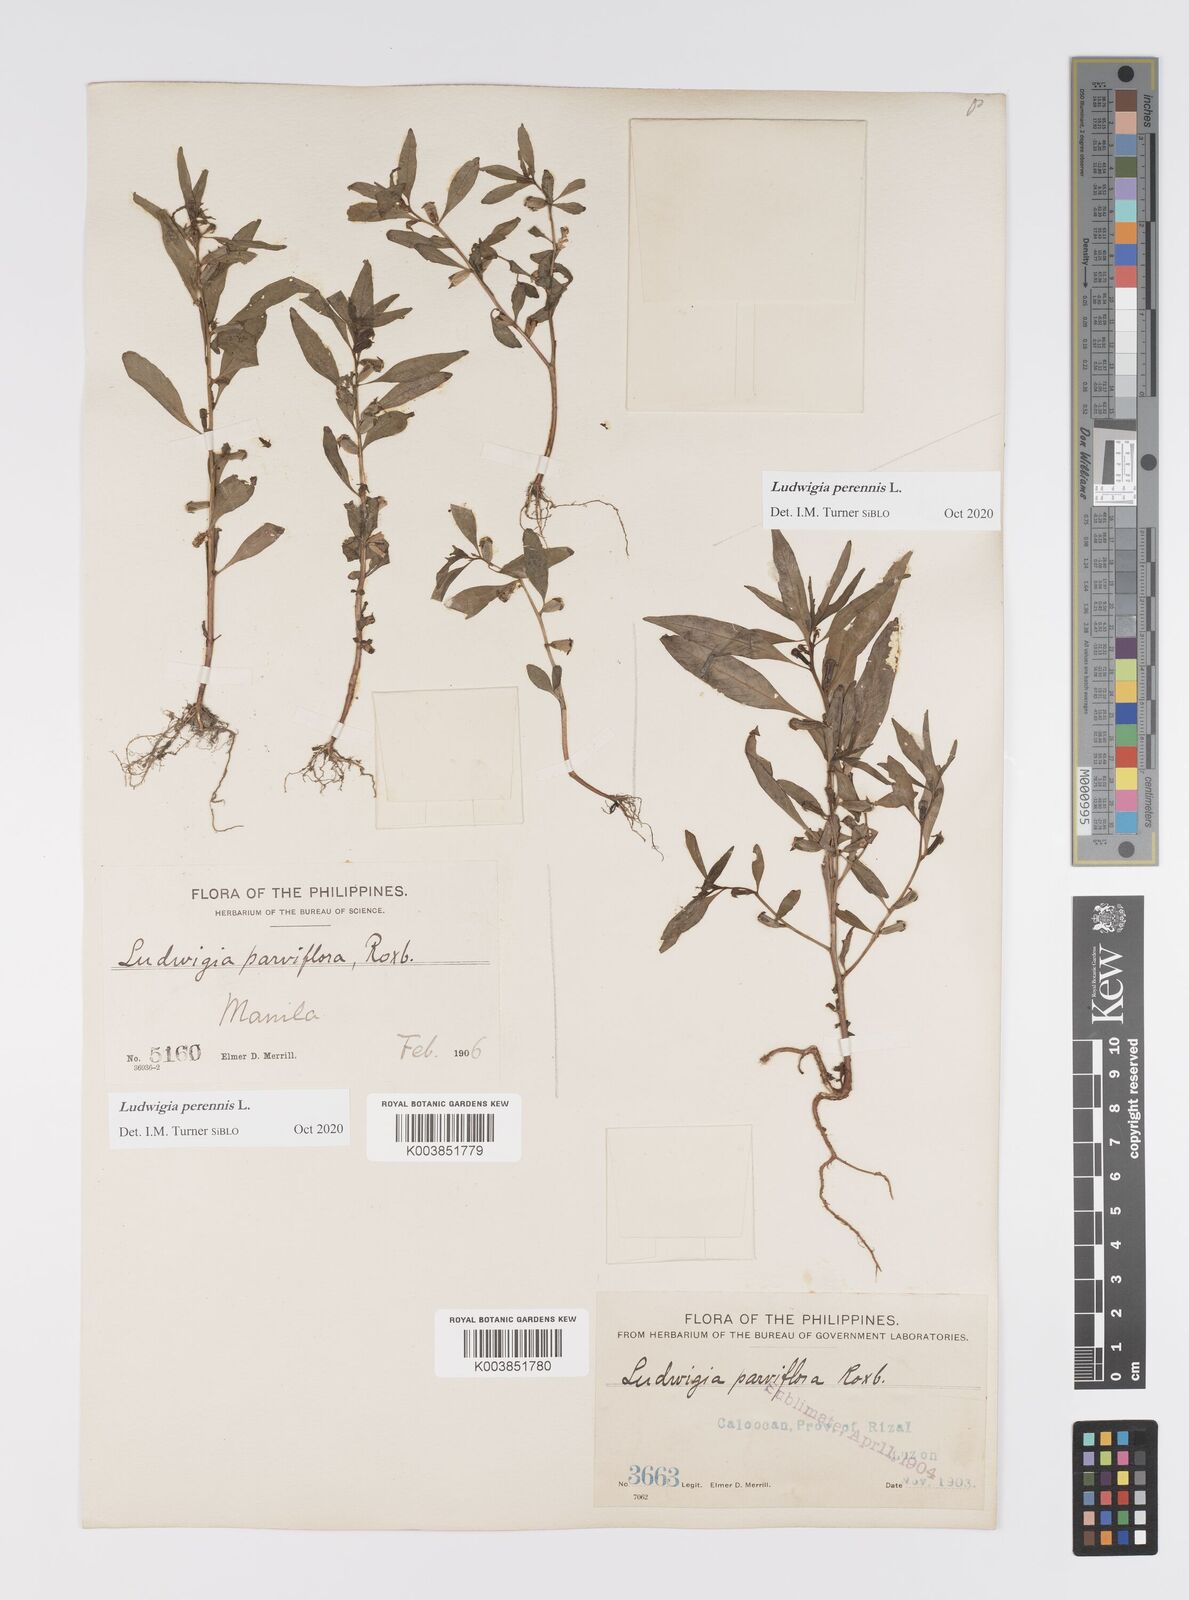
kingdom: Plantae
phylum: Tracheophyta
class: Magnoliopsida
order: Myrtales
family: Onagraceae
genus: Ludwigia
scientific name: Ludwigia perennis
